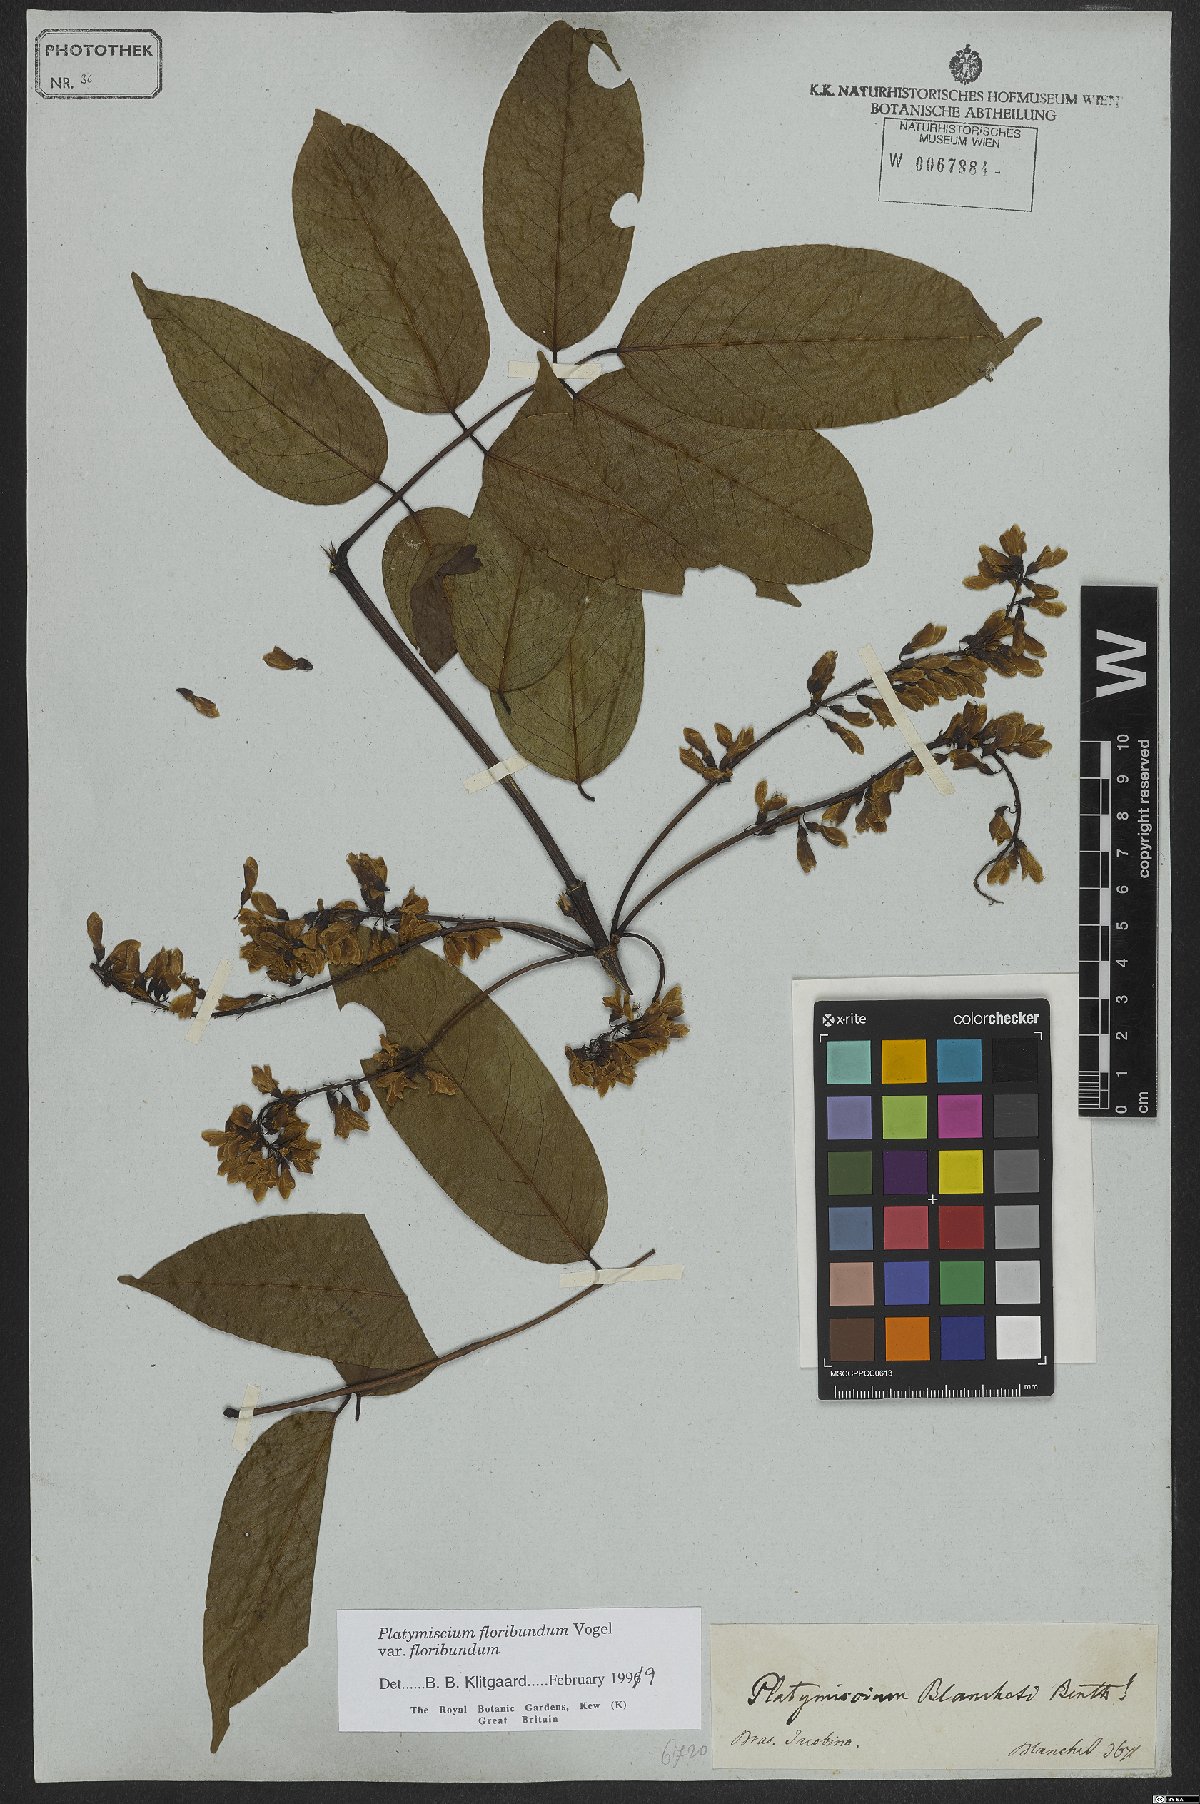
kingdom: Plantae
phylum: Tracheophyta
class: Magnoliopsida
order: Fabales
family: Fabaceae
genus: Platymiscium
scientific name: Platymiscium floribundum
